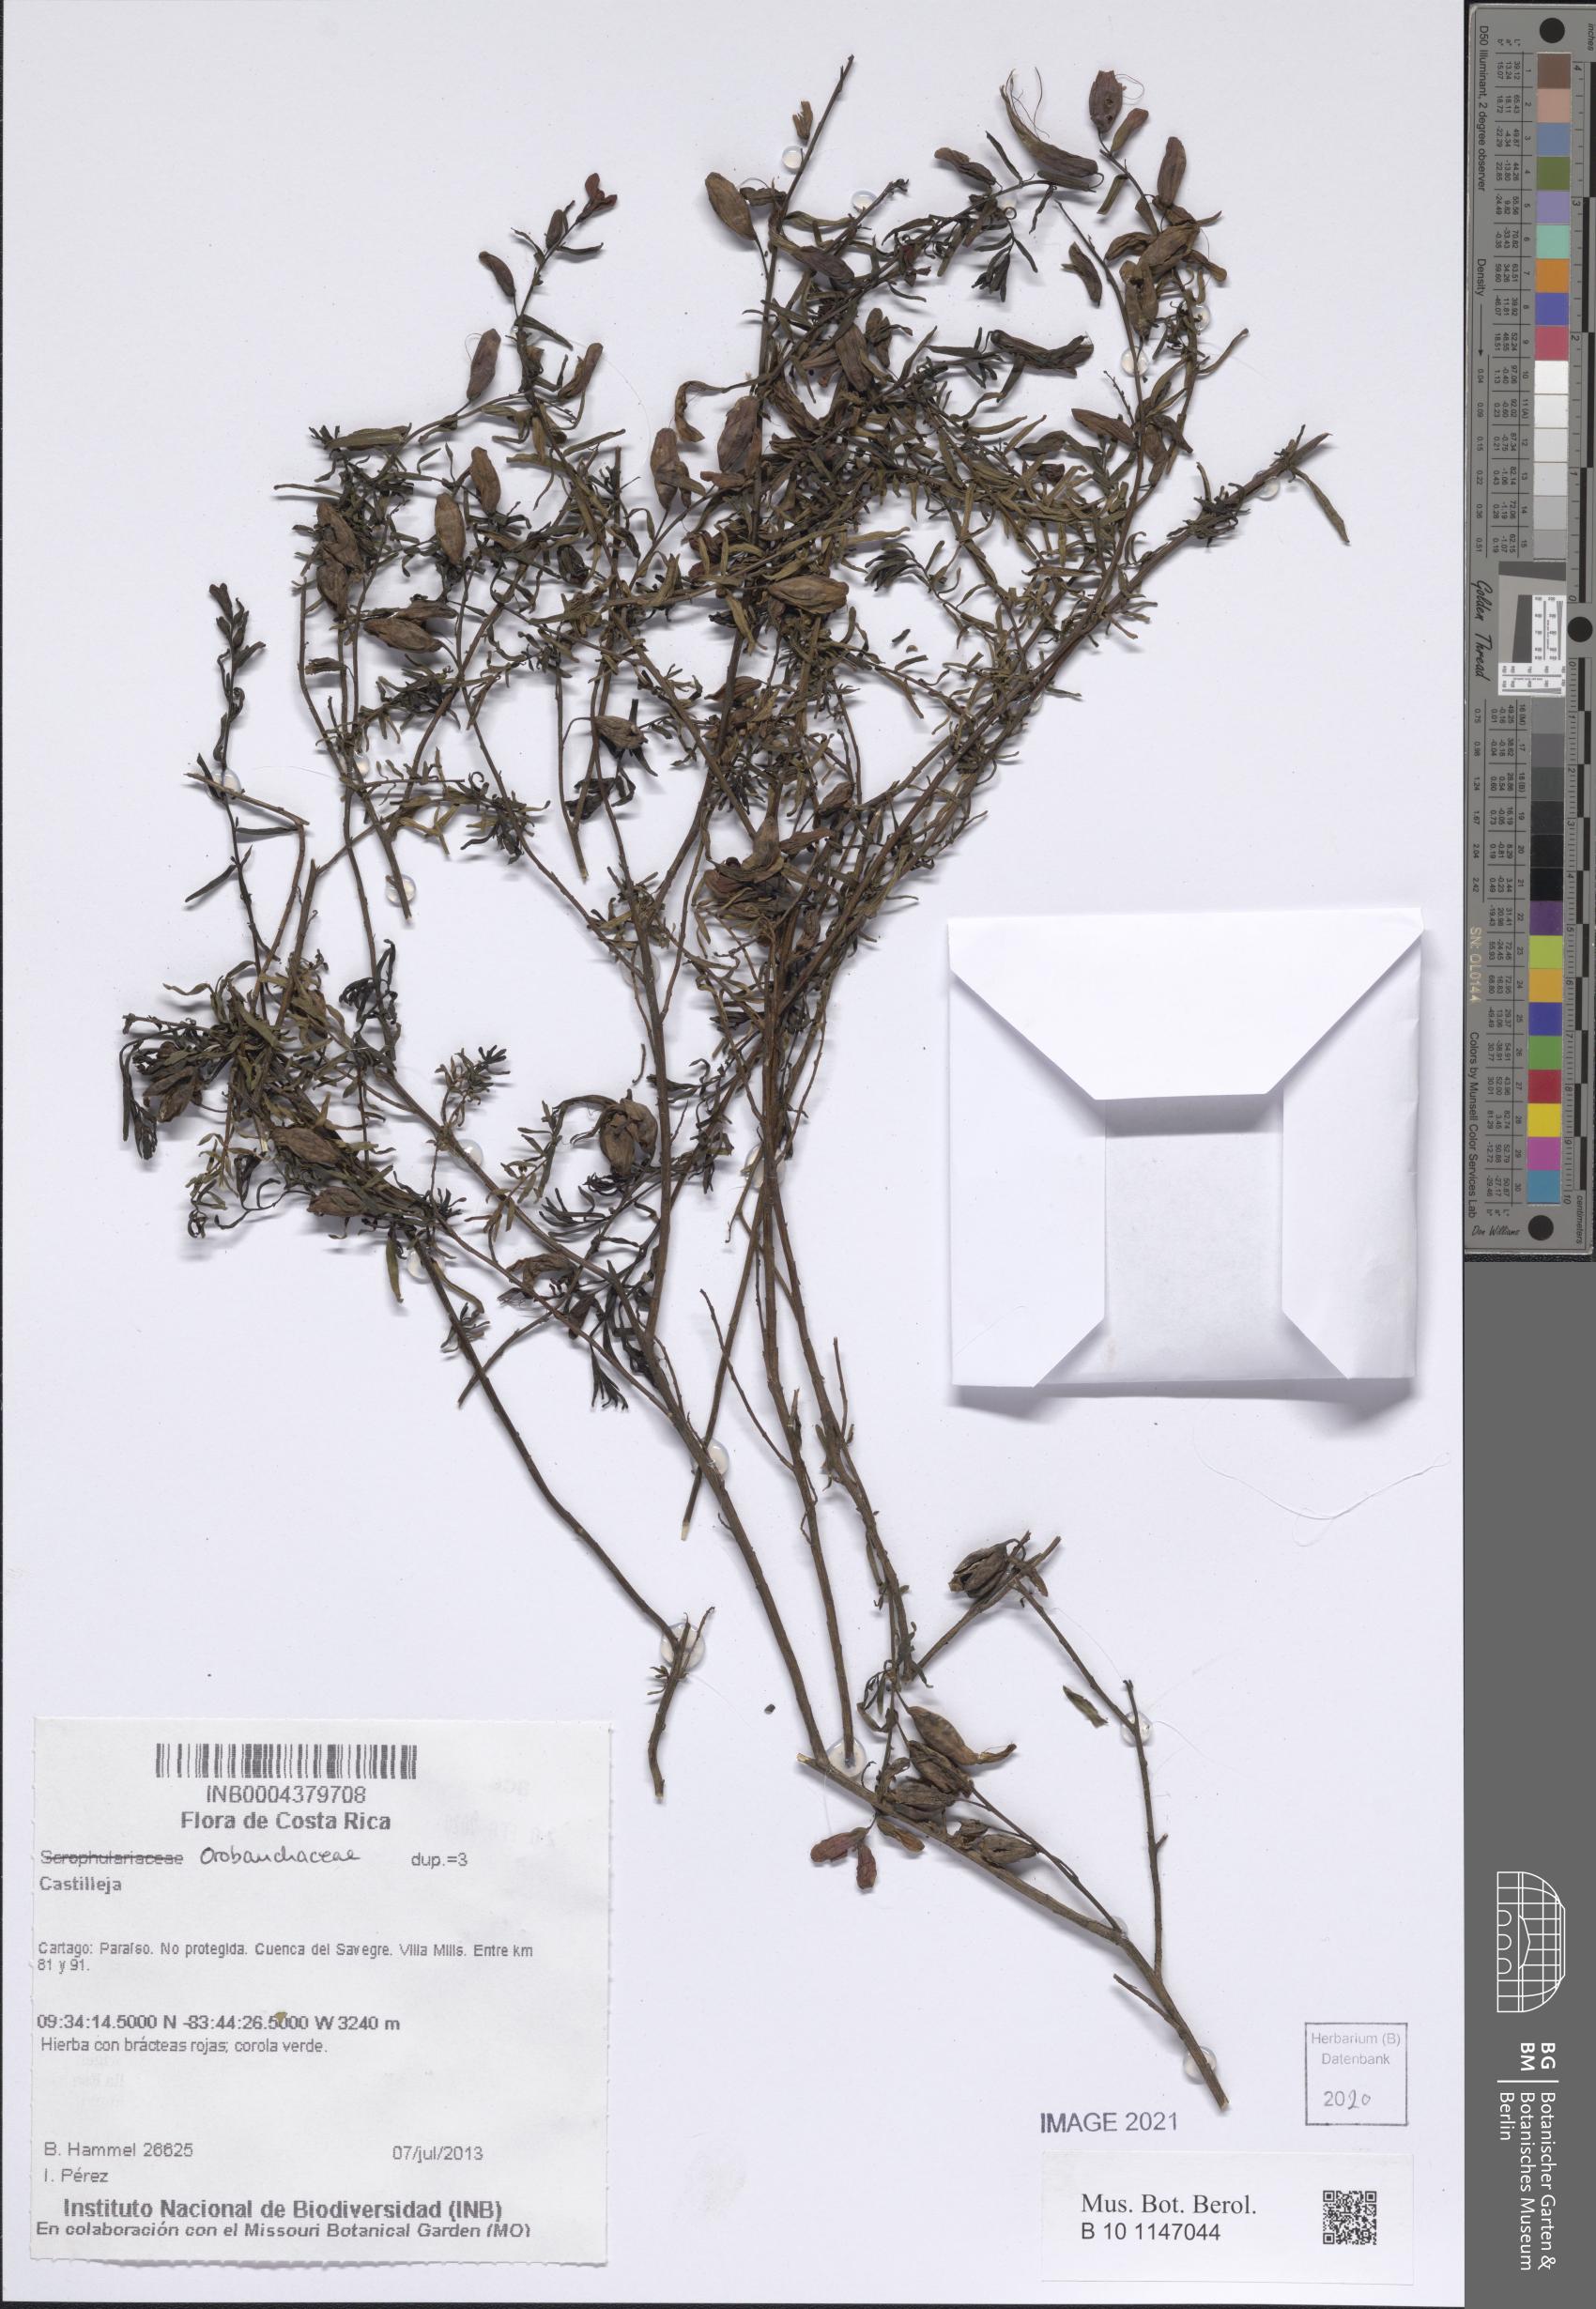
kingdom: Plantae
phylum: Tracheophyta
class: Magnoliopsida
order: Lamiales
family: Orobanchaceae
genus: Castilleja
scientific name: Castilleja
